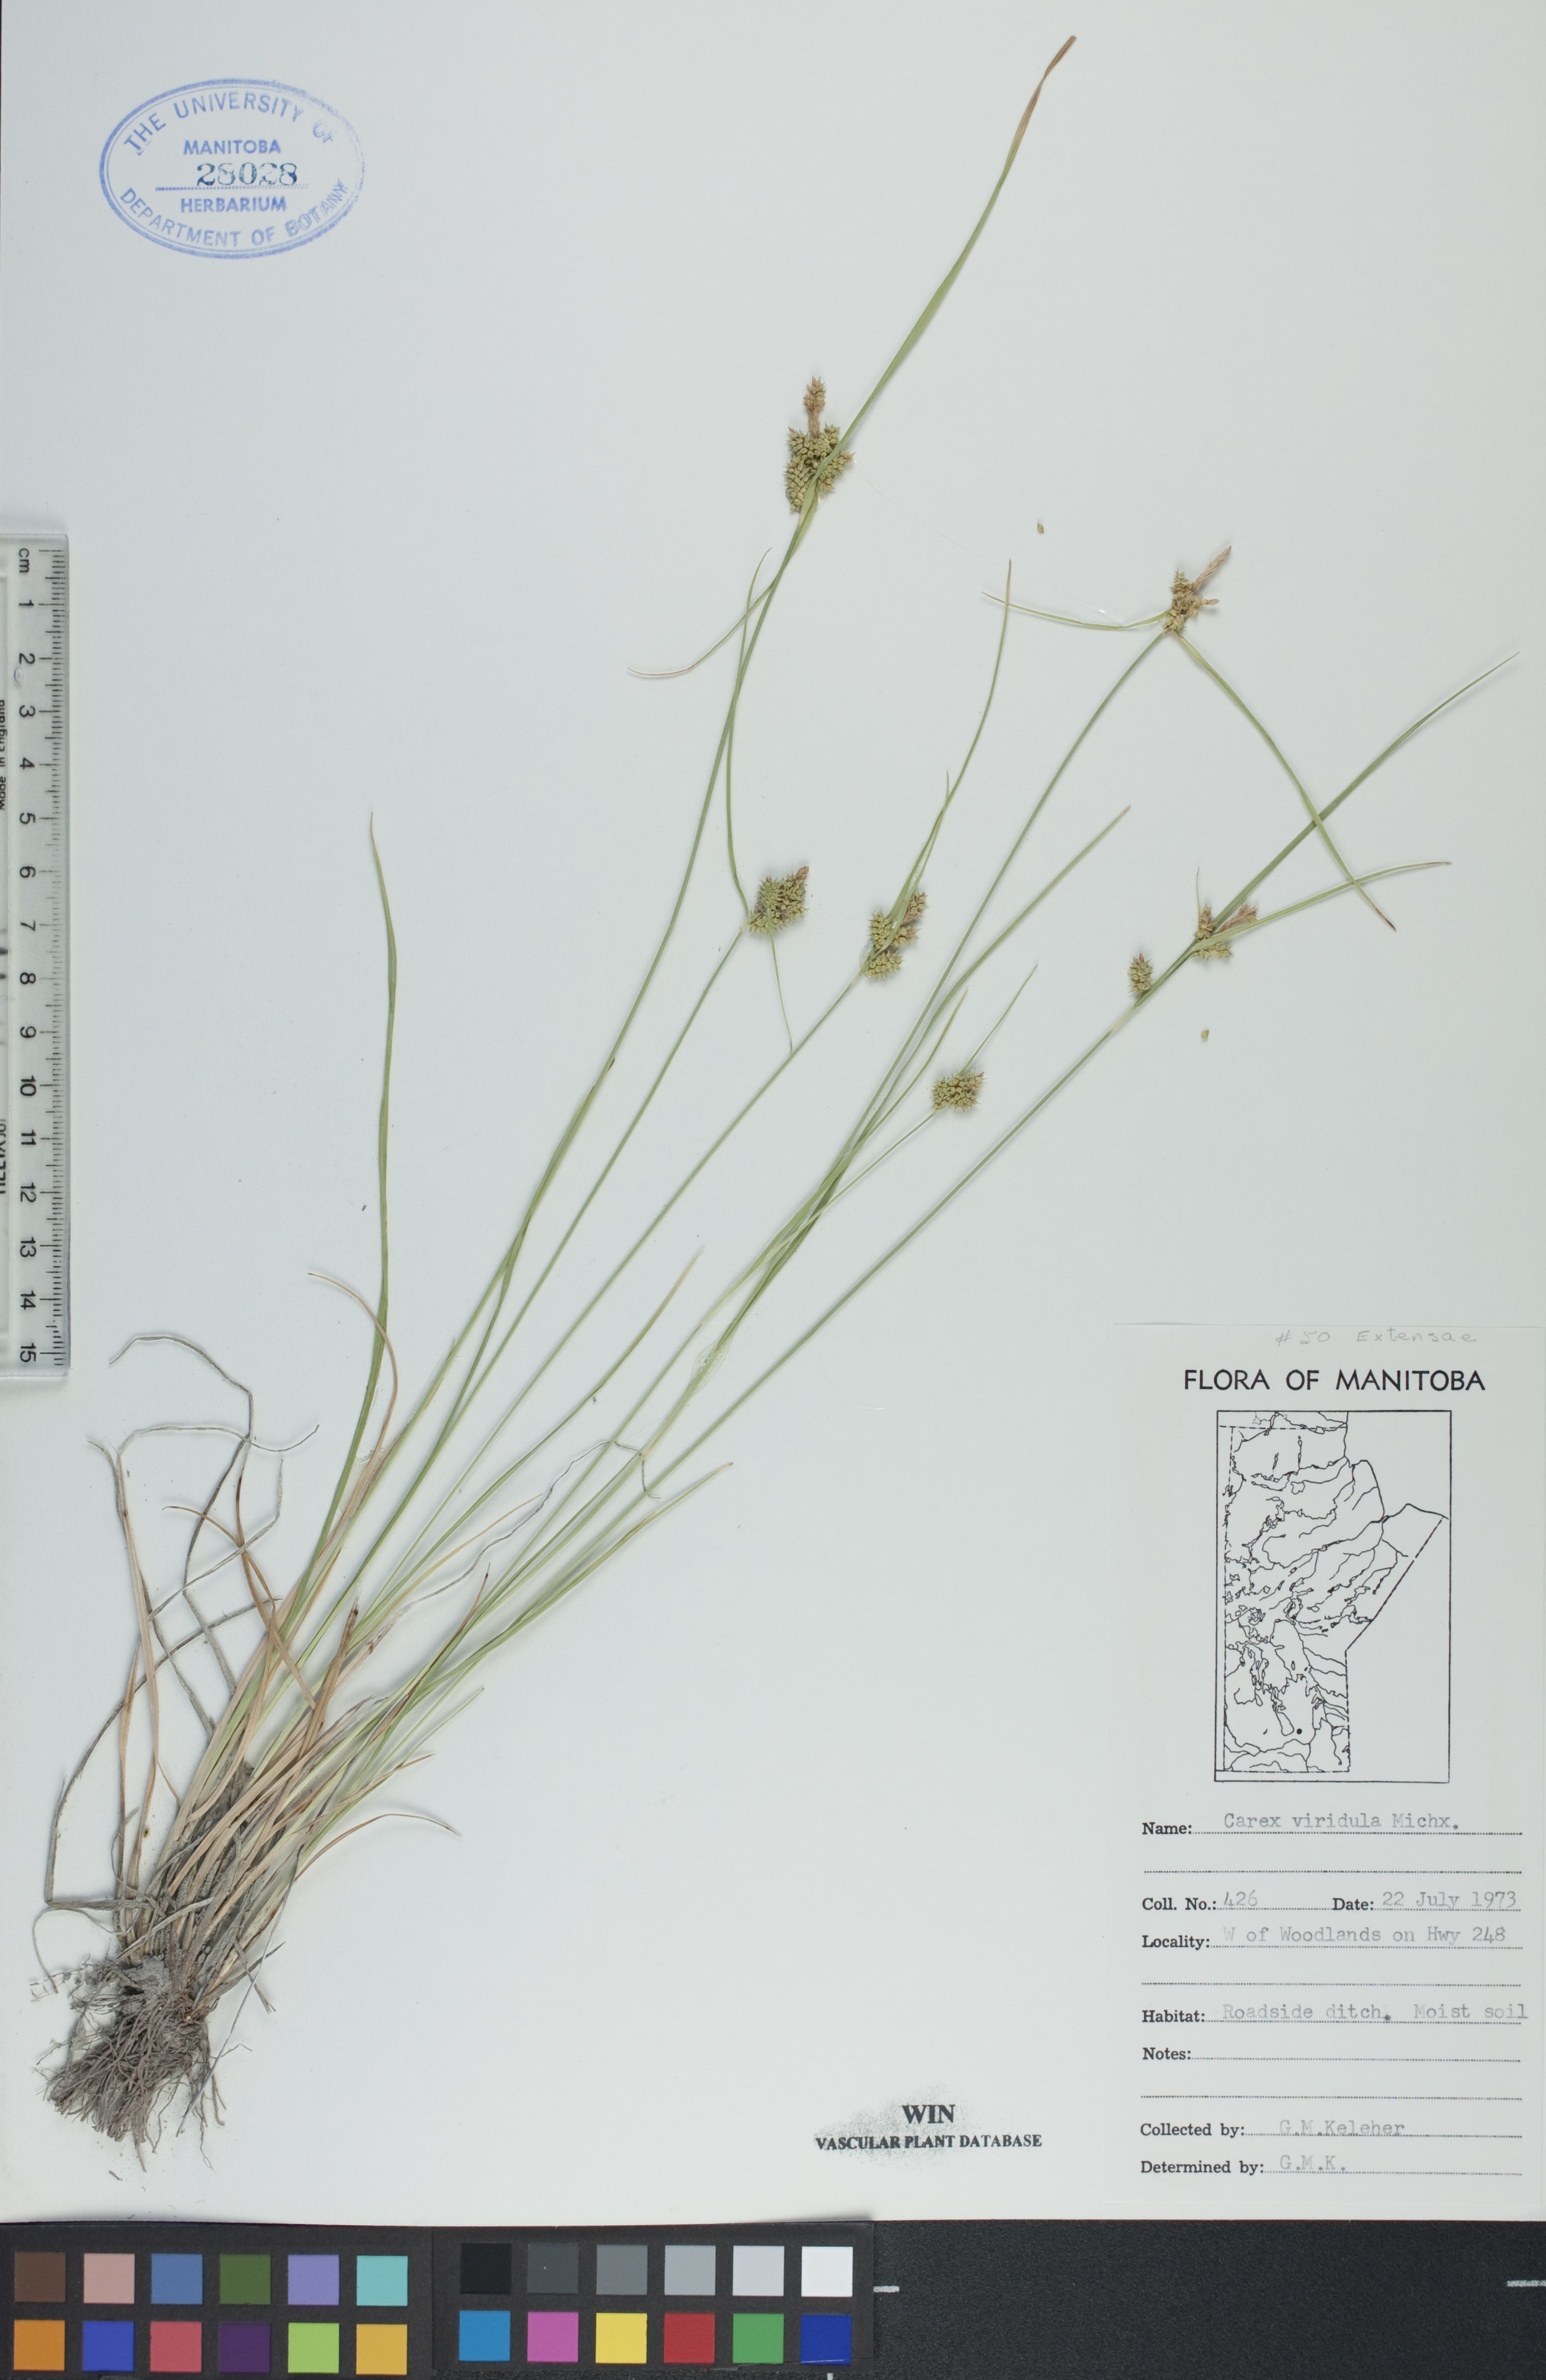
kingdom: Plantae
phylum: Tracheophyta
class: Liliopsida
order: Poales
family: Cyperaceae
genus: Carex
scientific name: Carex oederi
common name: Common & small-fruited yellow-sedge
